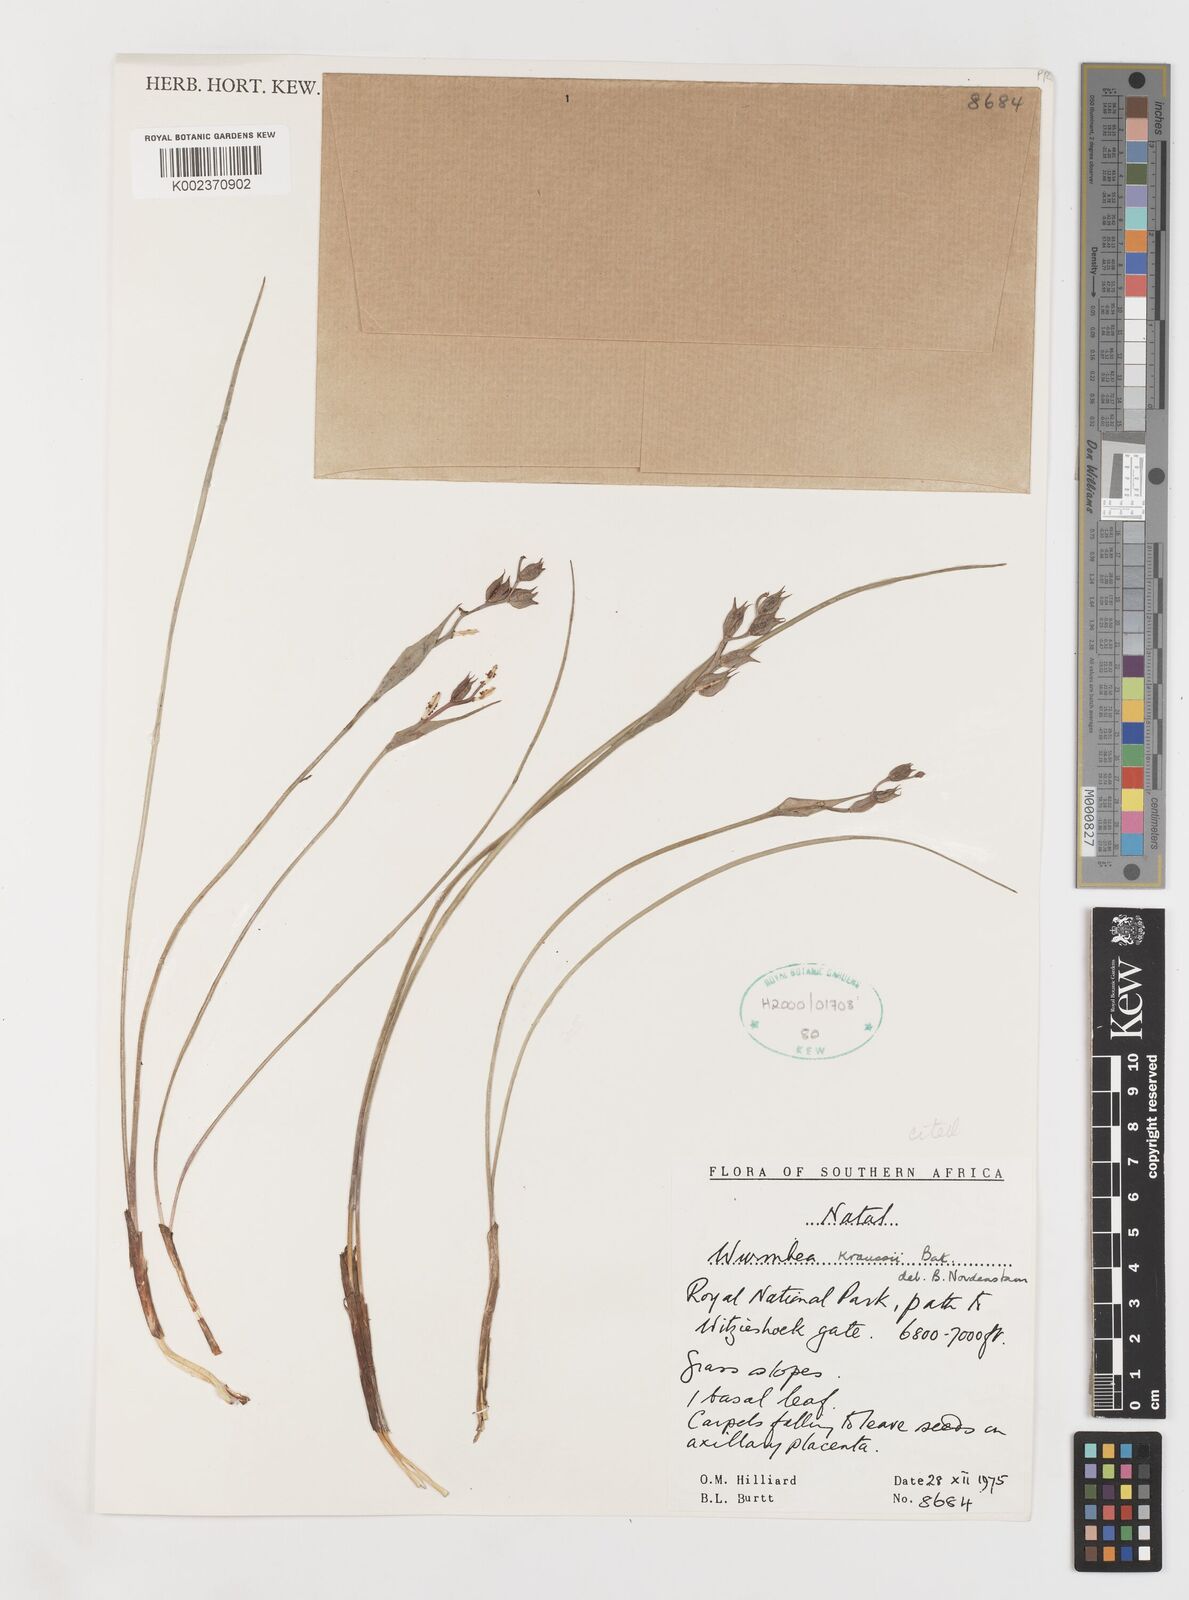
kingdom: Plantae
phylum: Tracheophyta
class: Liliopsida
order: Liliales
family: Colchicaceae
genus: Wurmbea
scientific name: Wurmbea kraussii
